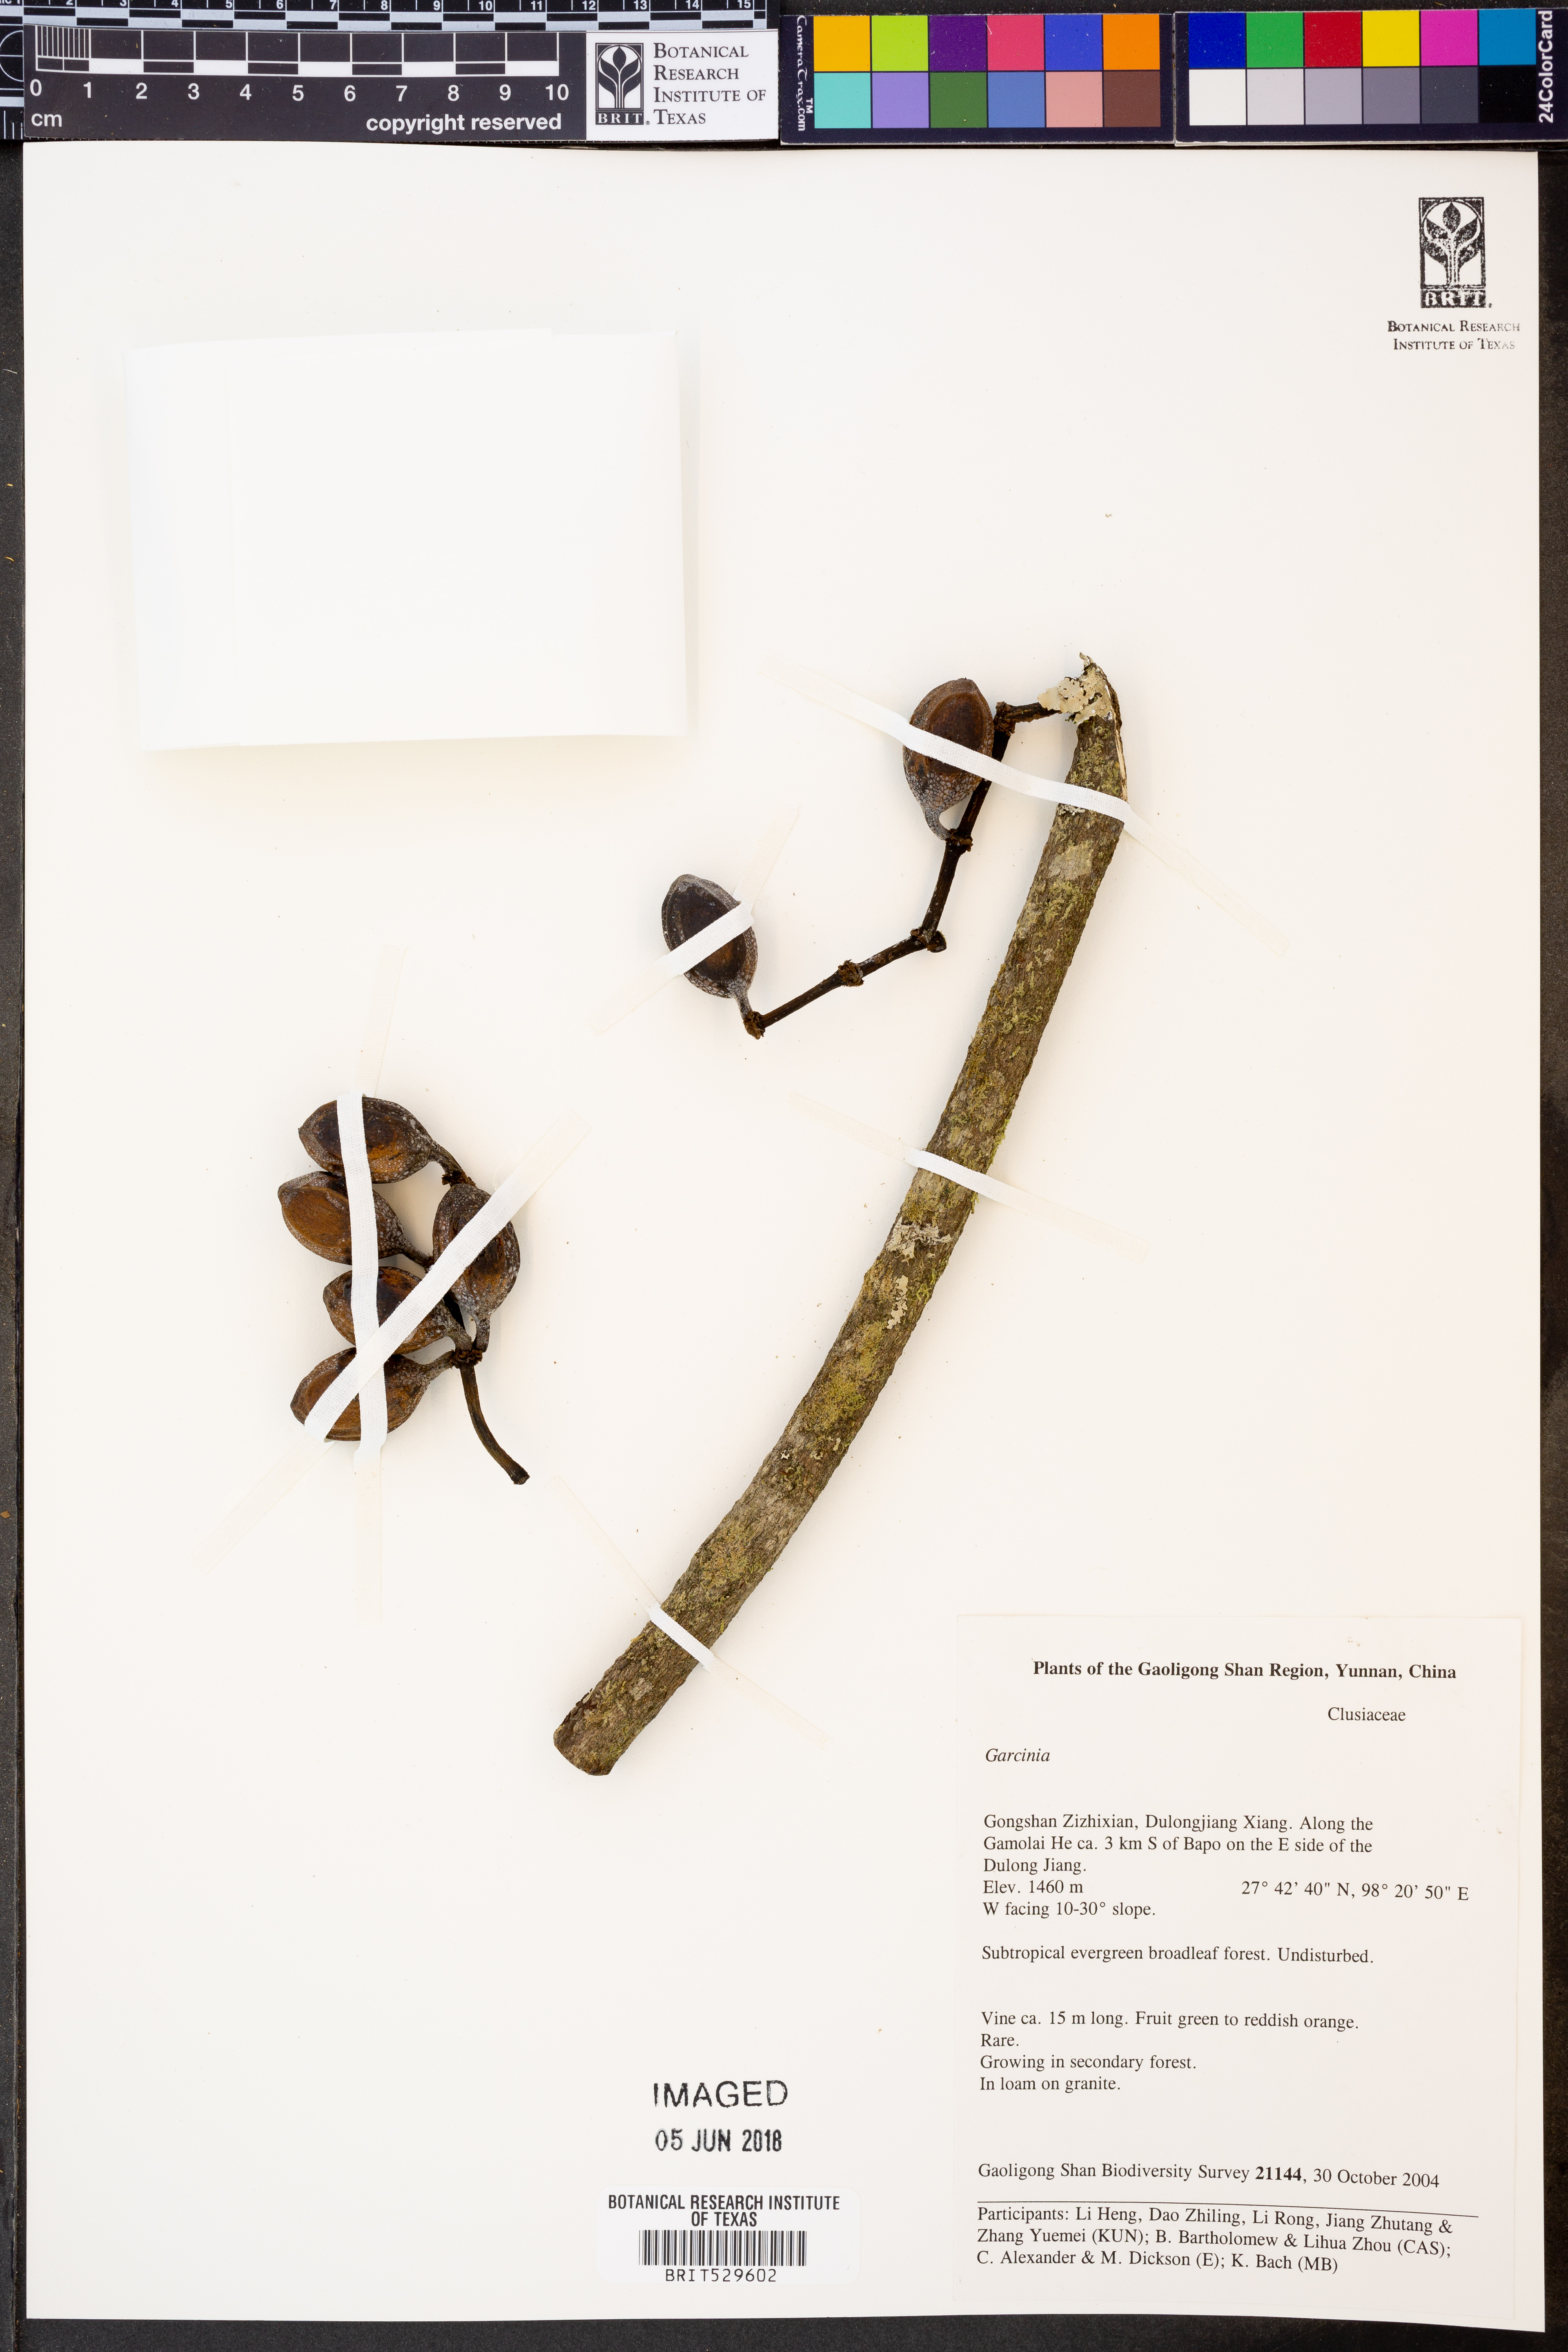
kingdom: Plantae
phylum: Tracheophyta
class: Magnoliopsida
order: Malpighiales
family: Clusiaceae
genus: Garcinia
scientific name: Garcinia
